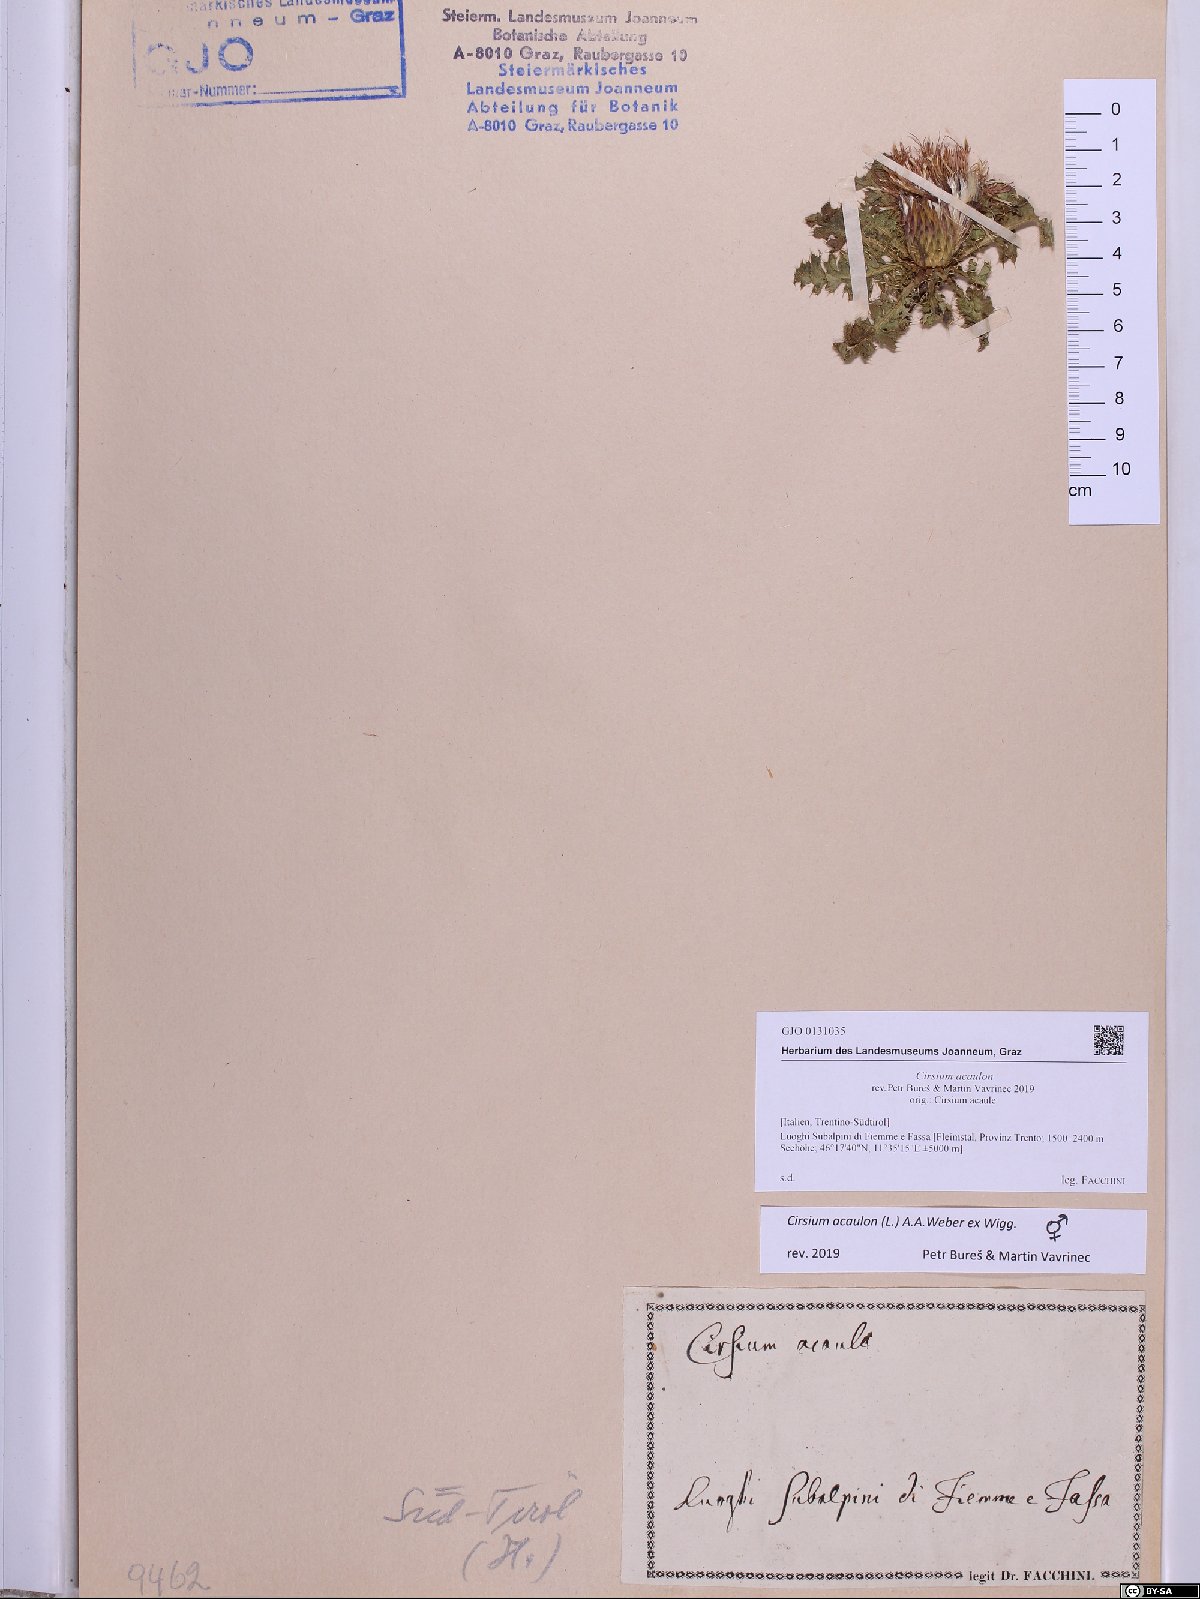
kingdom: Plantae
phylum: Tracheophyta
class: Magnoliopsida
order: Asterales
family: Asteraceae
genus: Cirsium
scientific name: Cirsium acaulon
